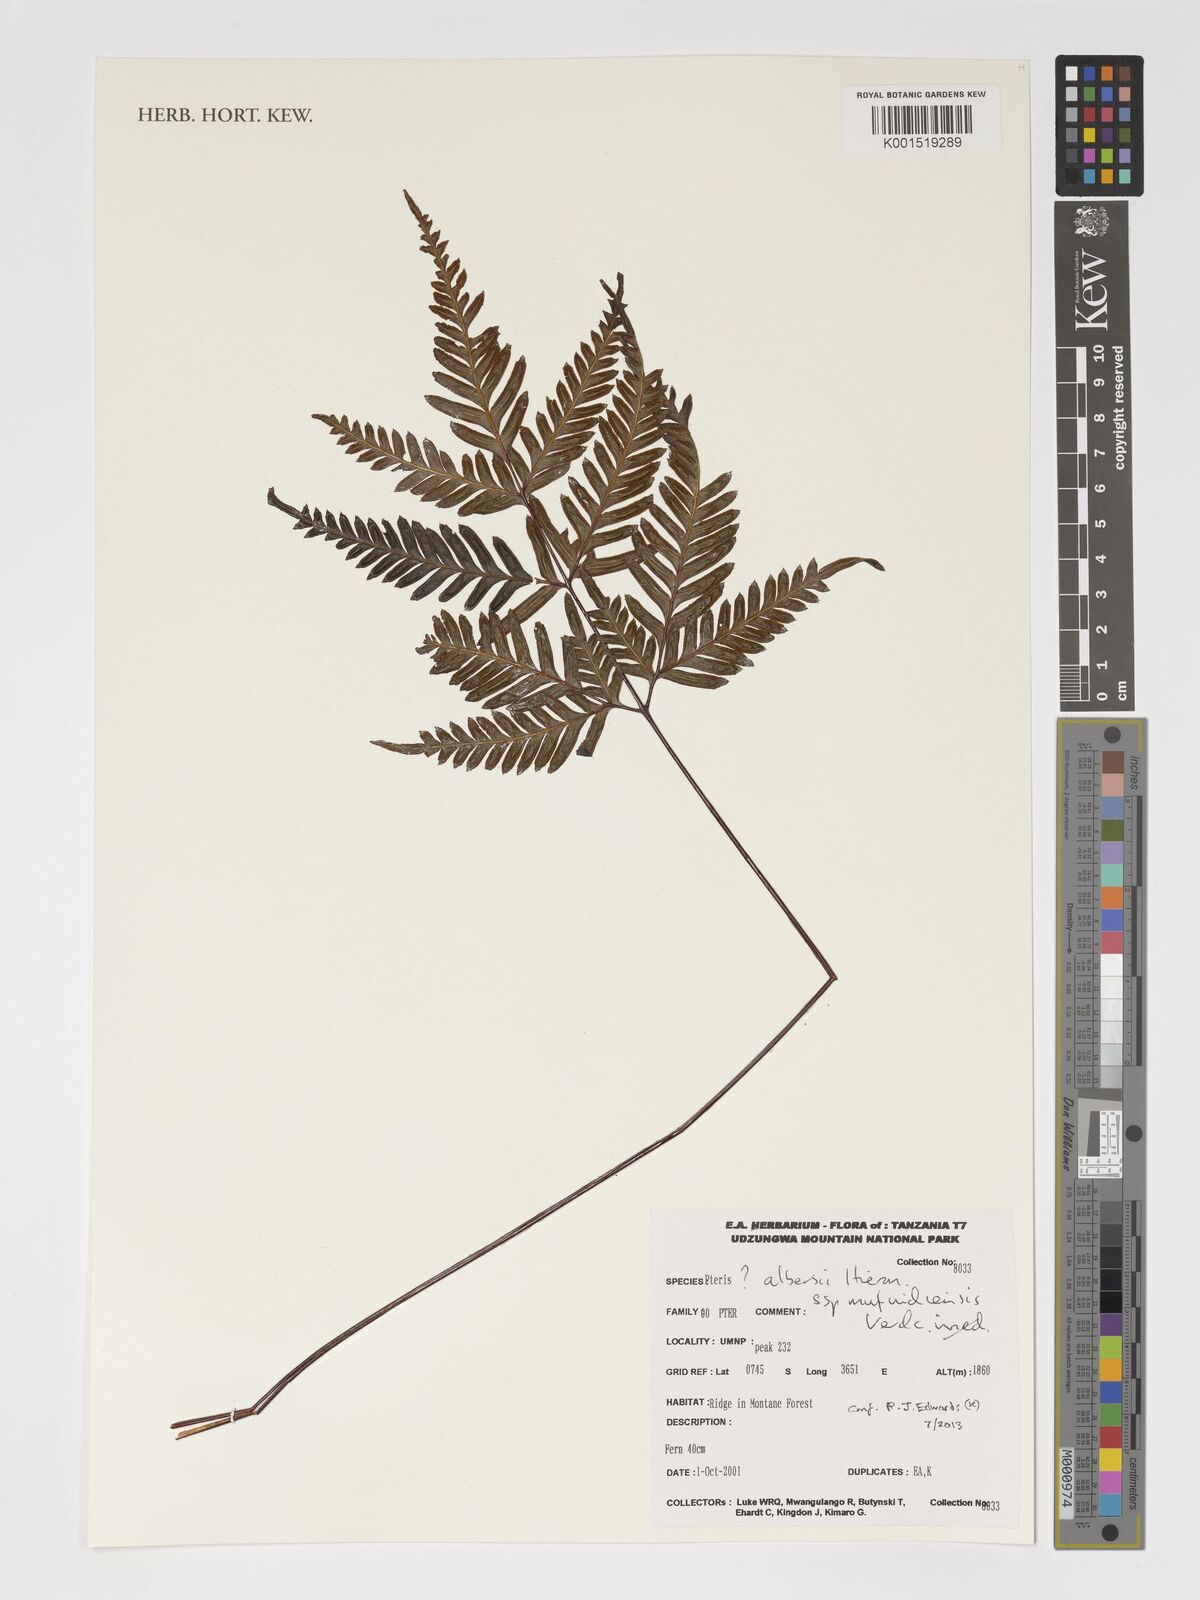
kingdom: Plantae
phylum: Tracheophyta
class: Polypodiopsida
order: Polypodiales
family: Pteridaceae
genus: Pteris
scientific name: Pteris albersii
